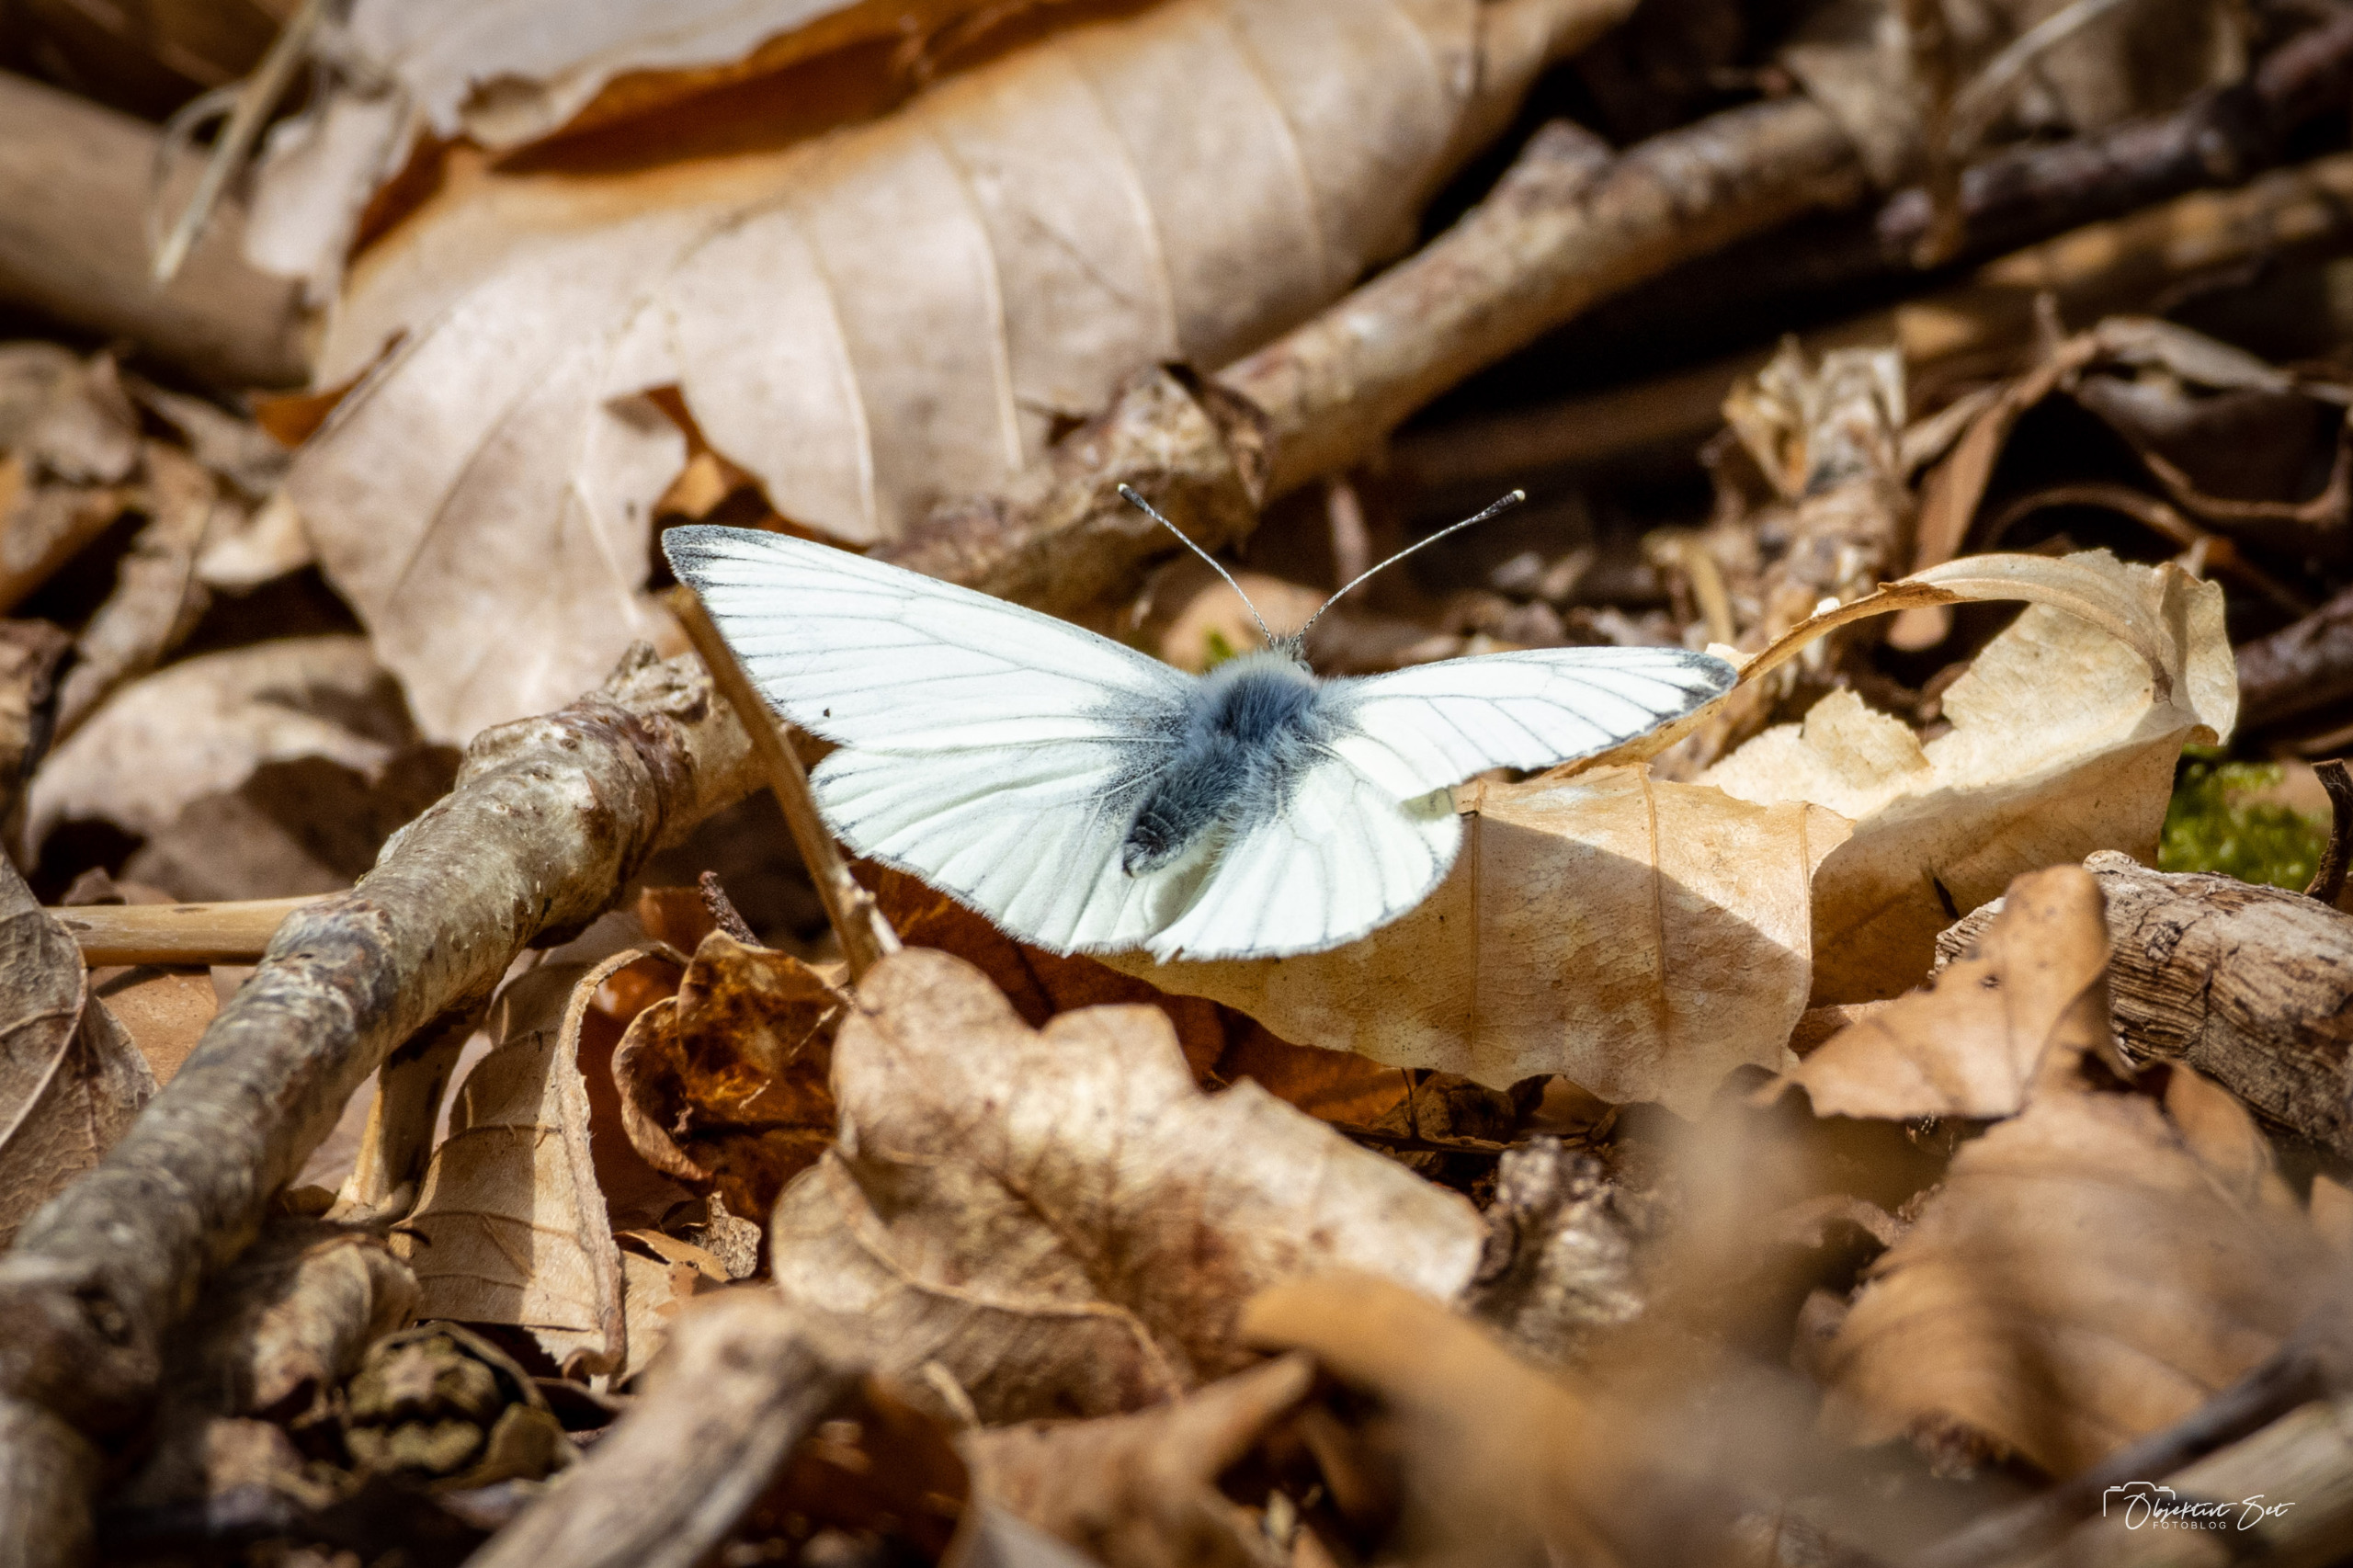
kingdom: Animalia
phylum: Arthropoda
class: Insecta
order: Lepidoptera
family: Pieridae
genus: Pieris
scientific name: Pieris napi
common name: Grønåret kålsommerfugl
